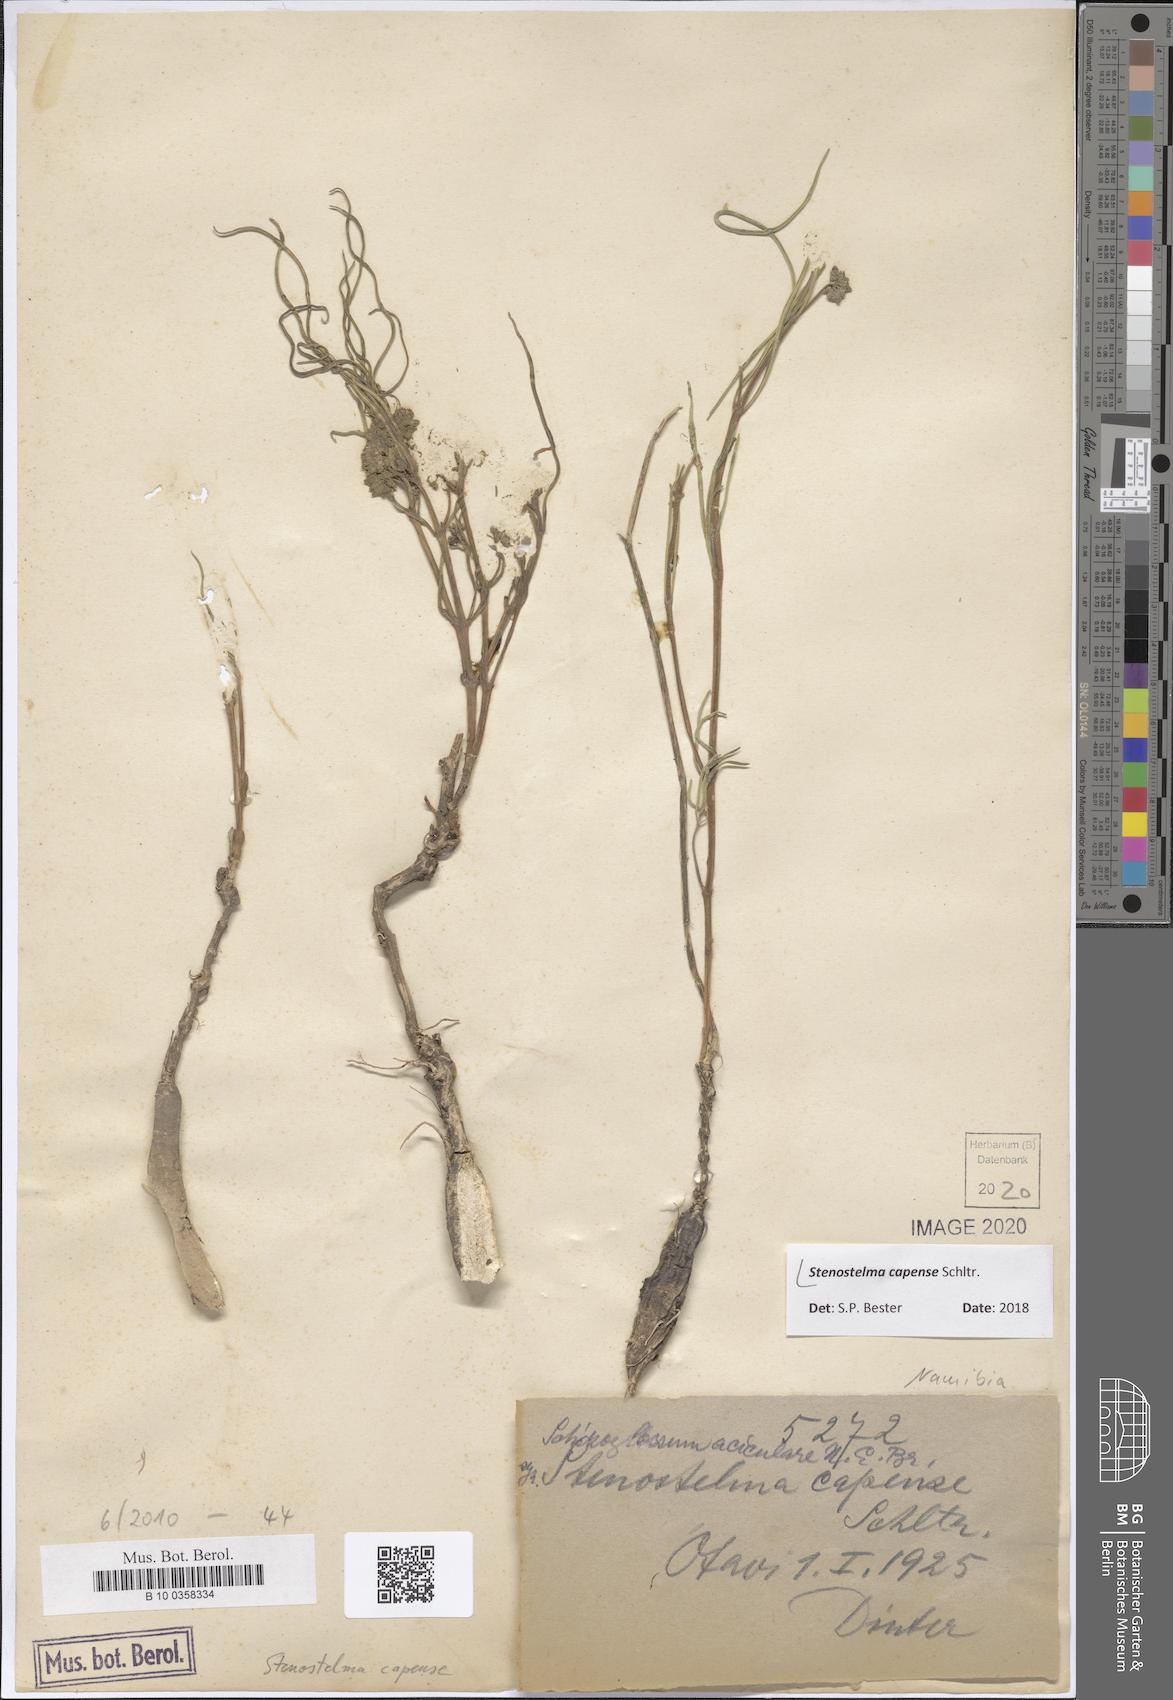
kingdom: Plantae
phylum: Tracheophyta
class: Magnoliopsida
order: Gentianales
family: Apocynaceae
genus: Stenostelma
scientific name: Stenostelma capense
